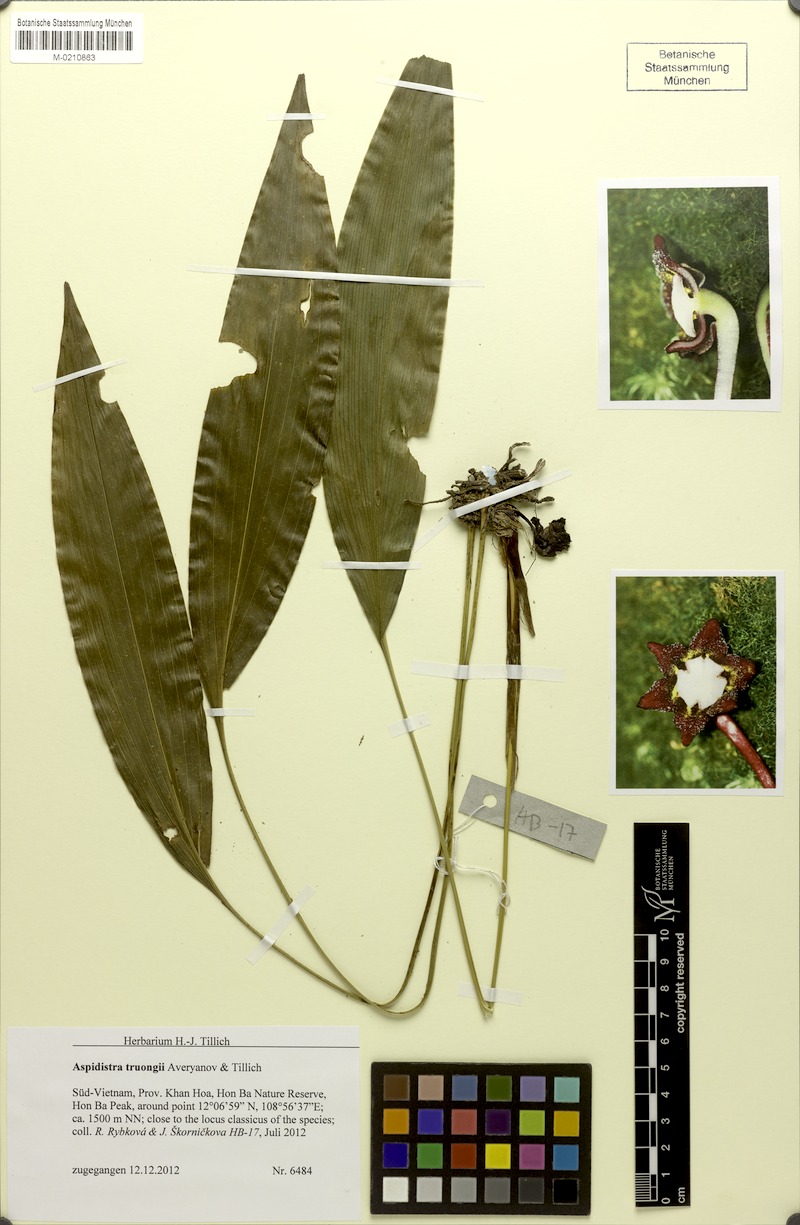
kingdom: Plantae
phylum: Tracheophyta
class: Liliopsida
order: Asparagales
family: Asparagaceae
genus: Aspidistra
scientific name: Aspidistra truongii
